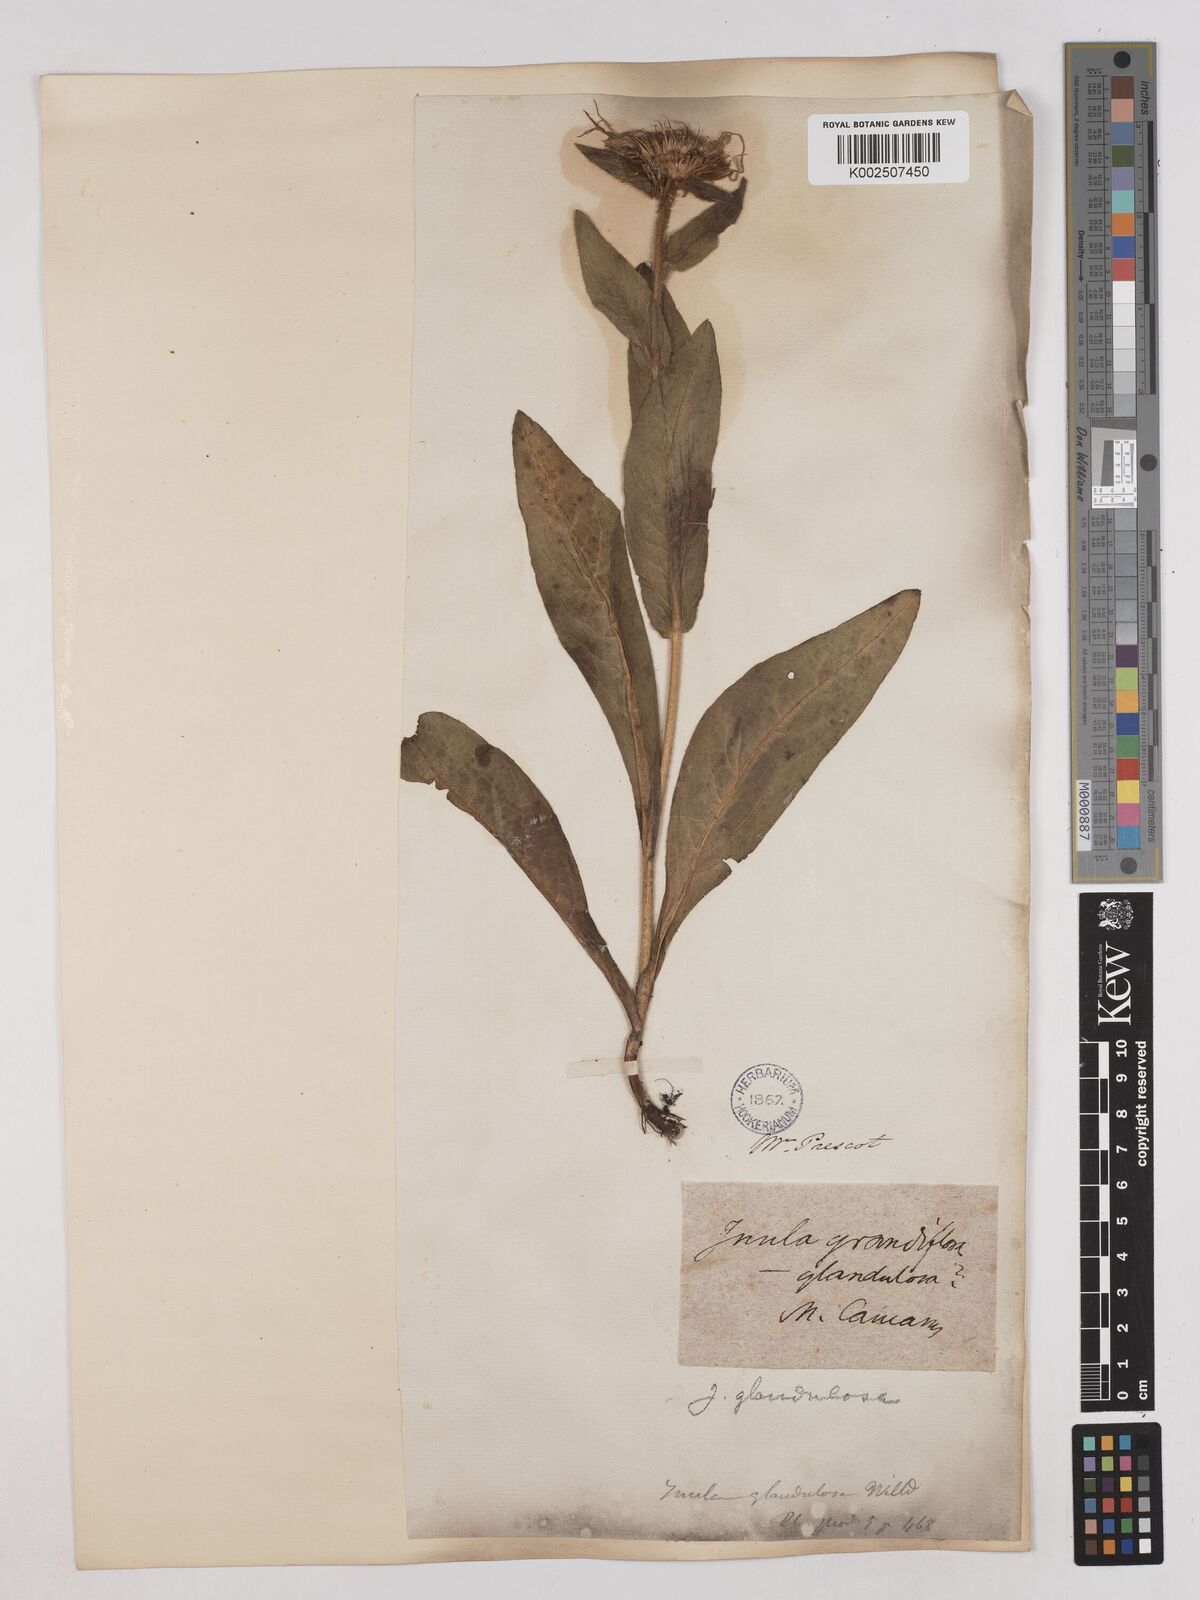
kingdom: Plantae
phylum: Tracheophyta
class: Magnoliopsida
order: Asterales
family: Asteraceae
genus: Pentanema
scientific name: Pentanema orientale
